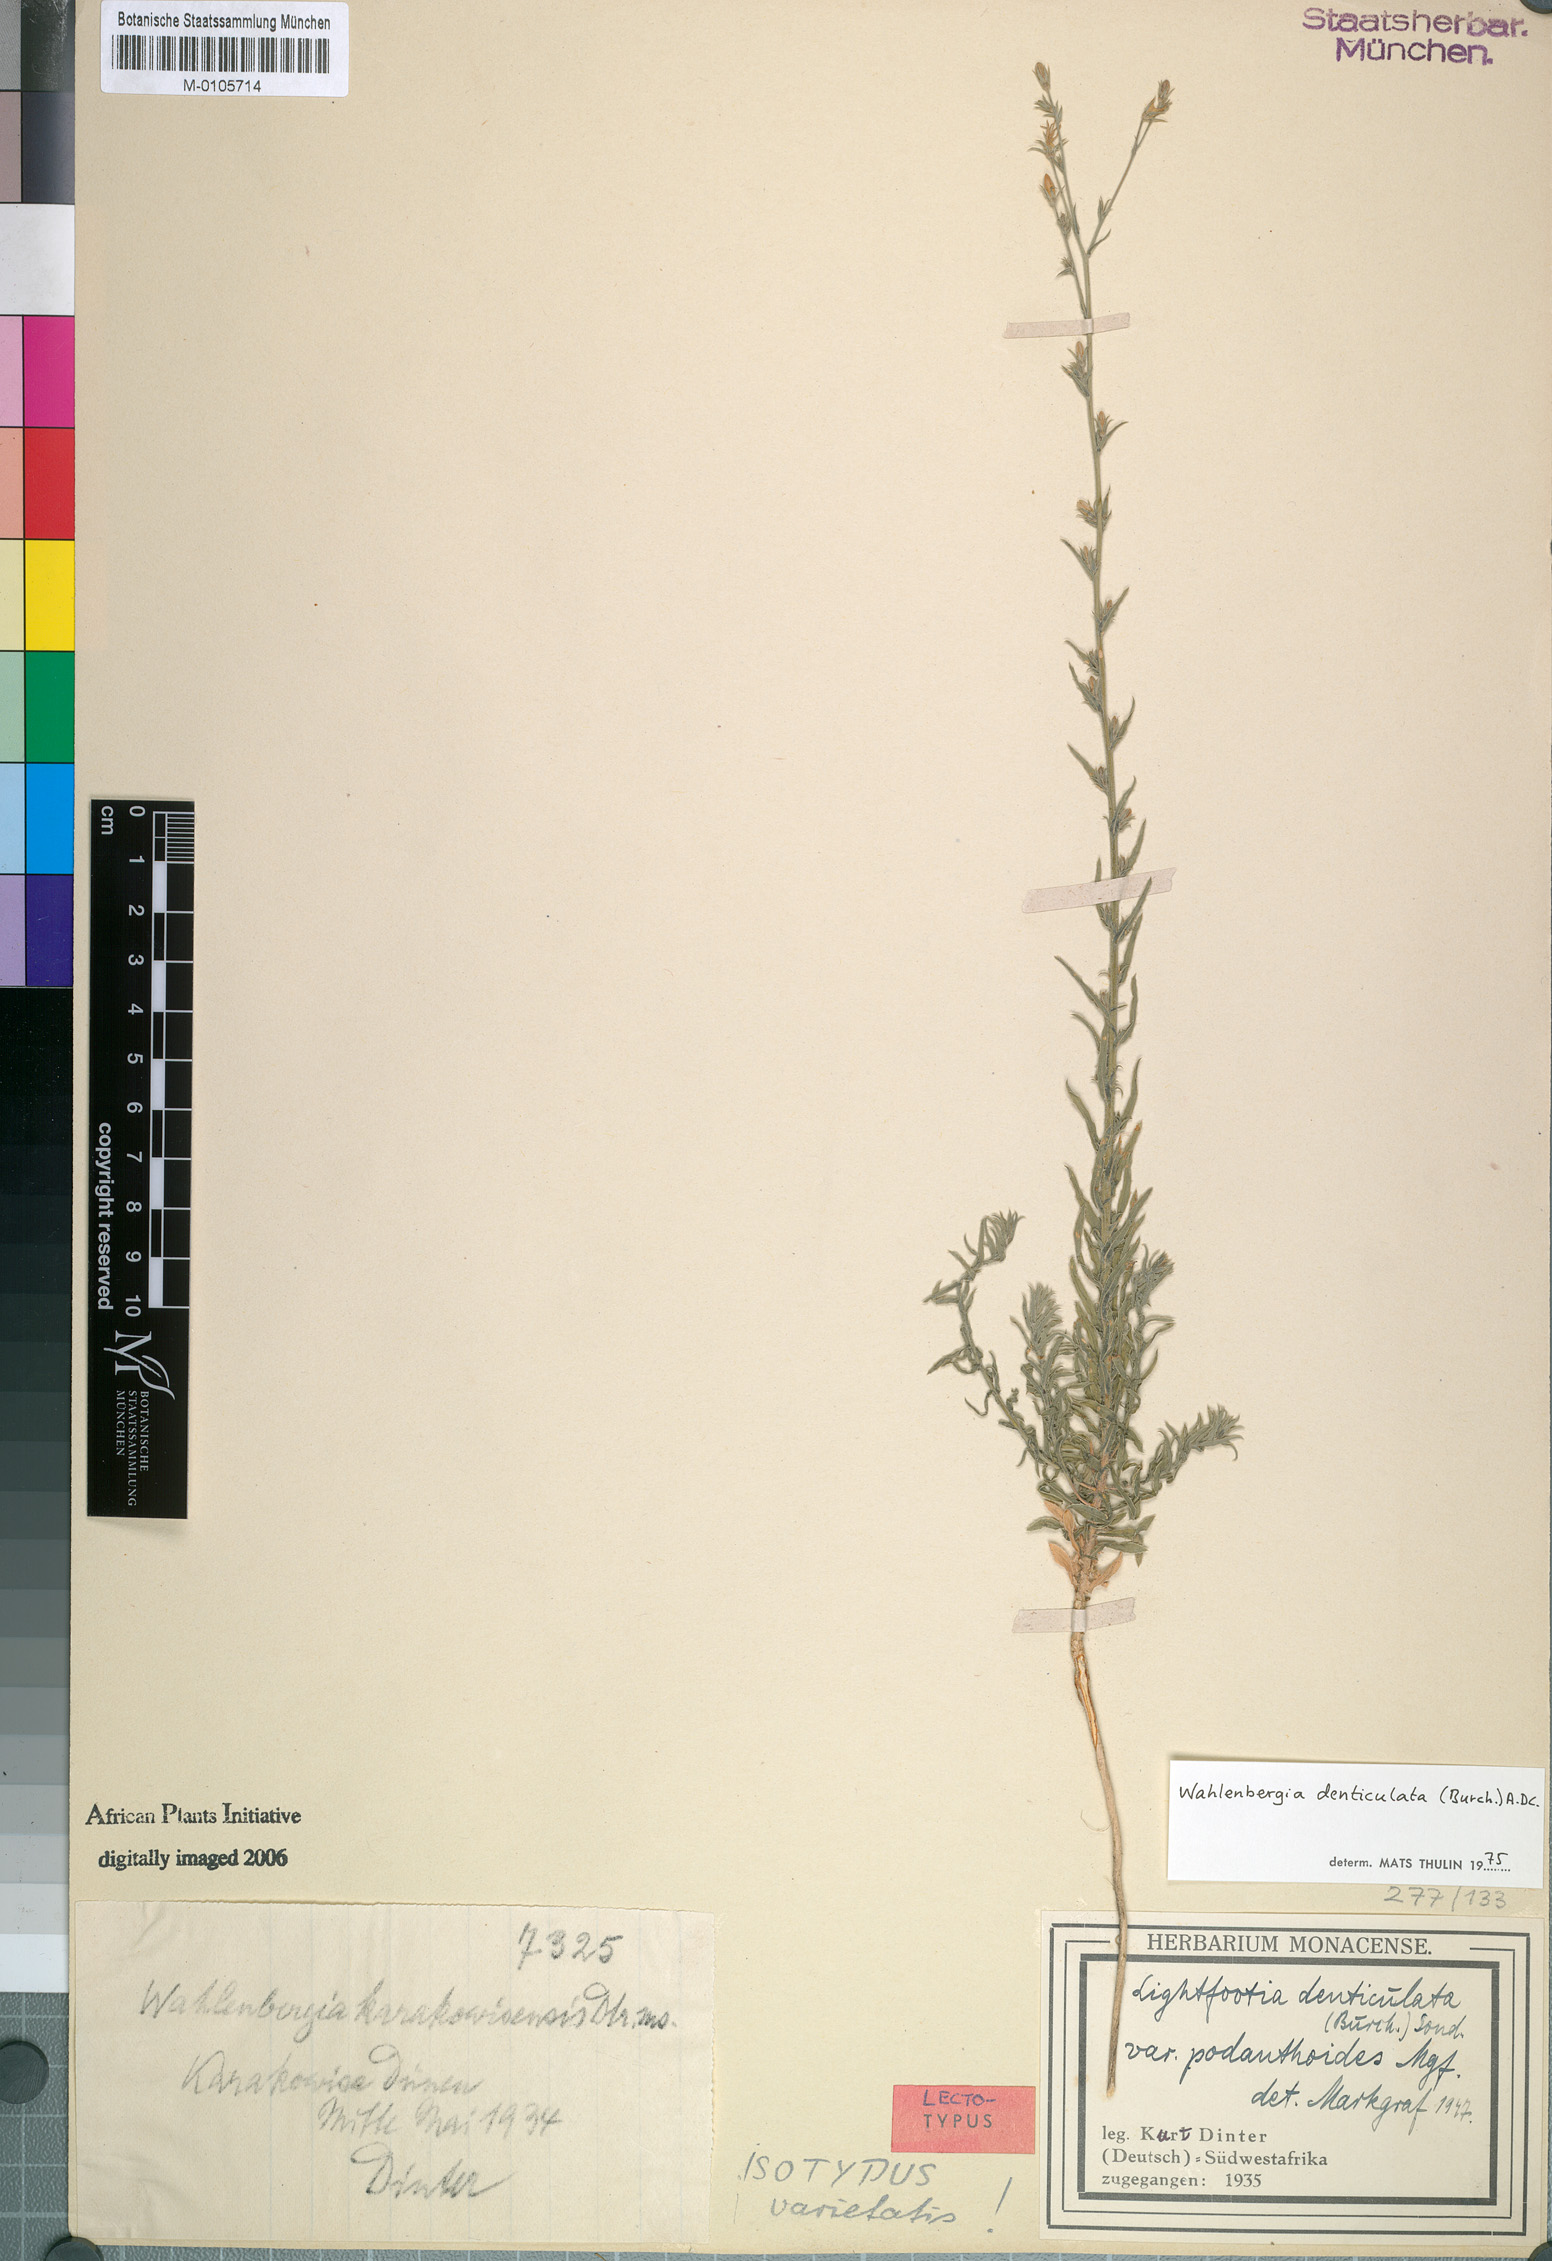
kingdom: Plantae
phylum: Tracheophyta
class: Magnoliopsida
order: Asterales
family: Campanulaceae
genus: Wahlenbergia
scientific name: Wahlenbergia denticulata
